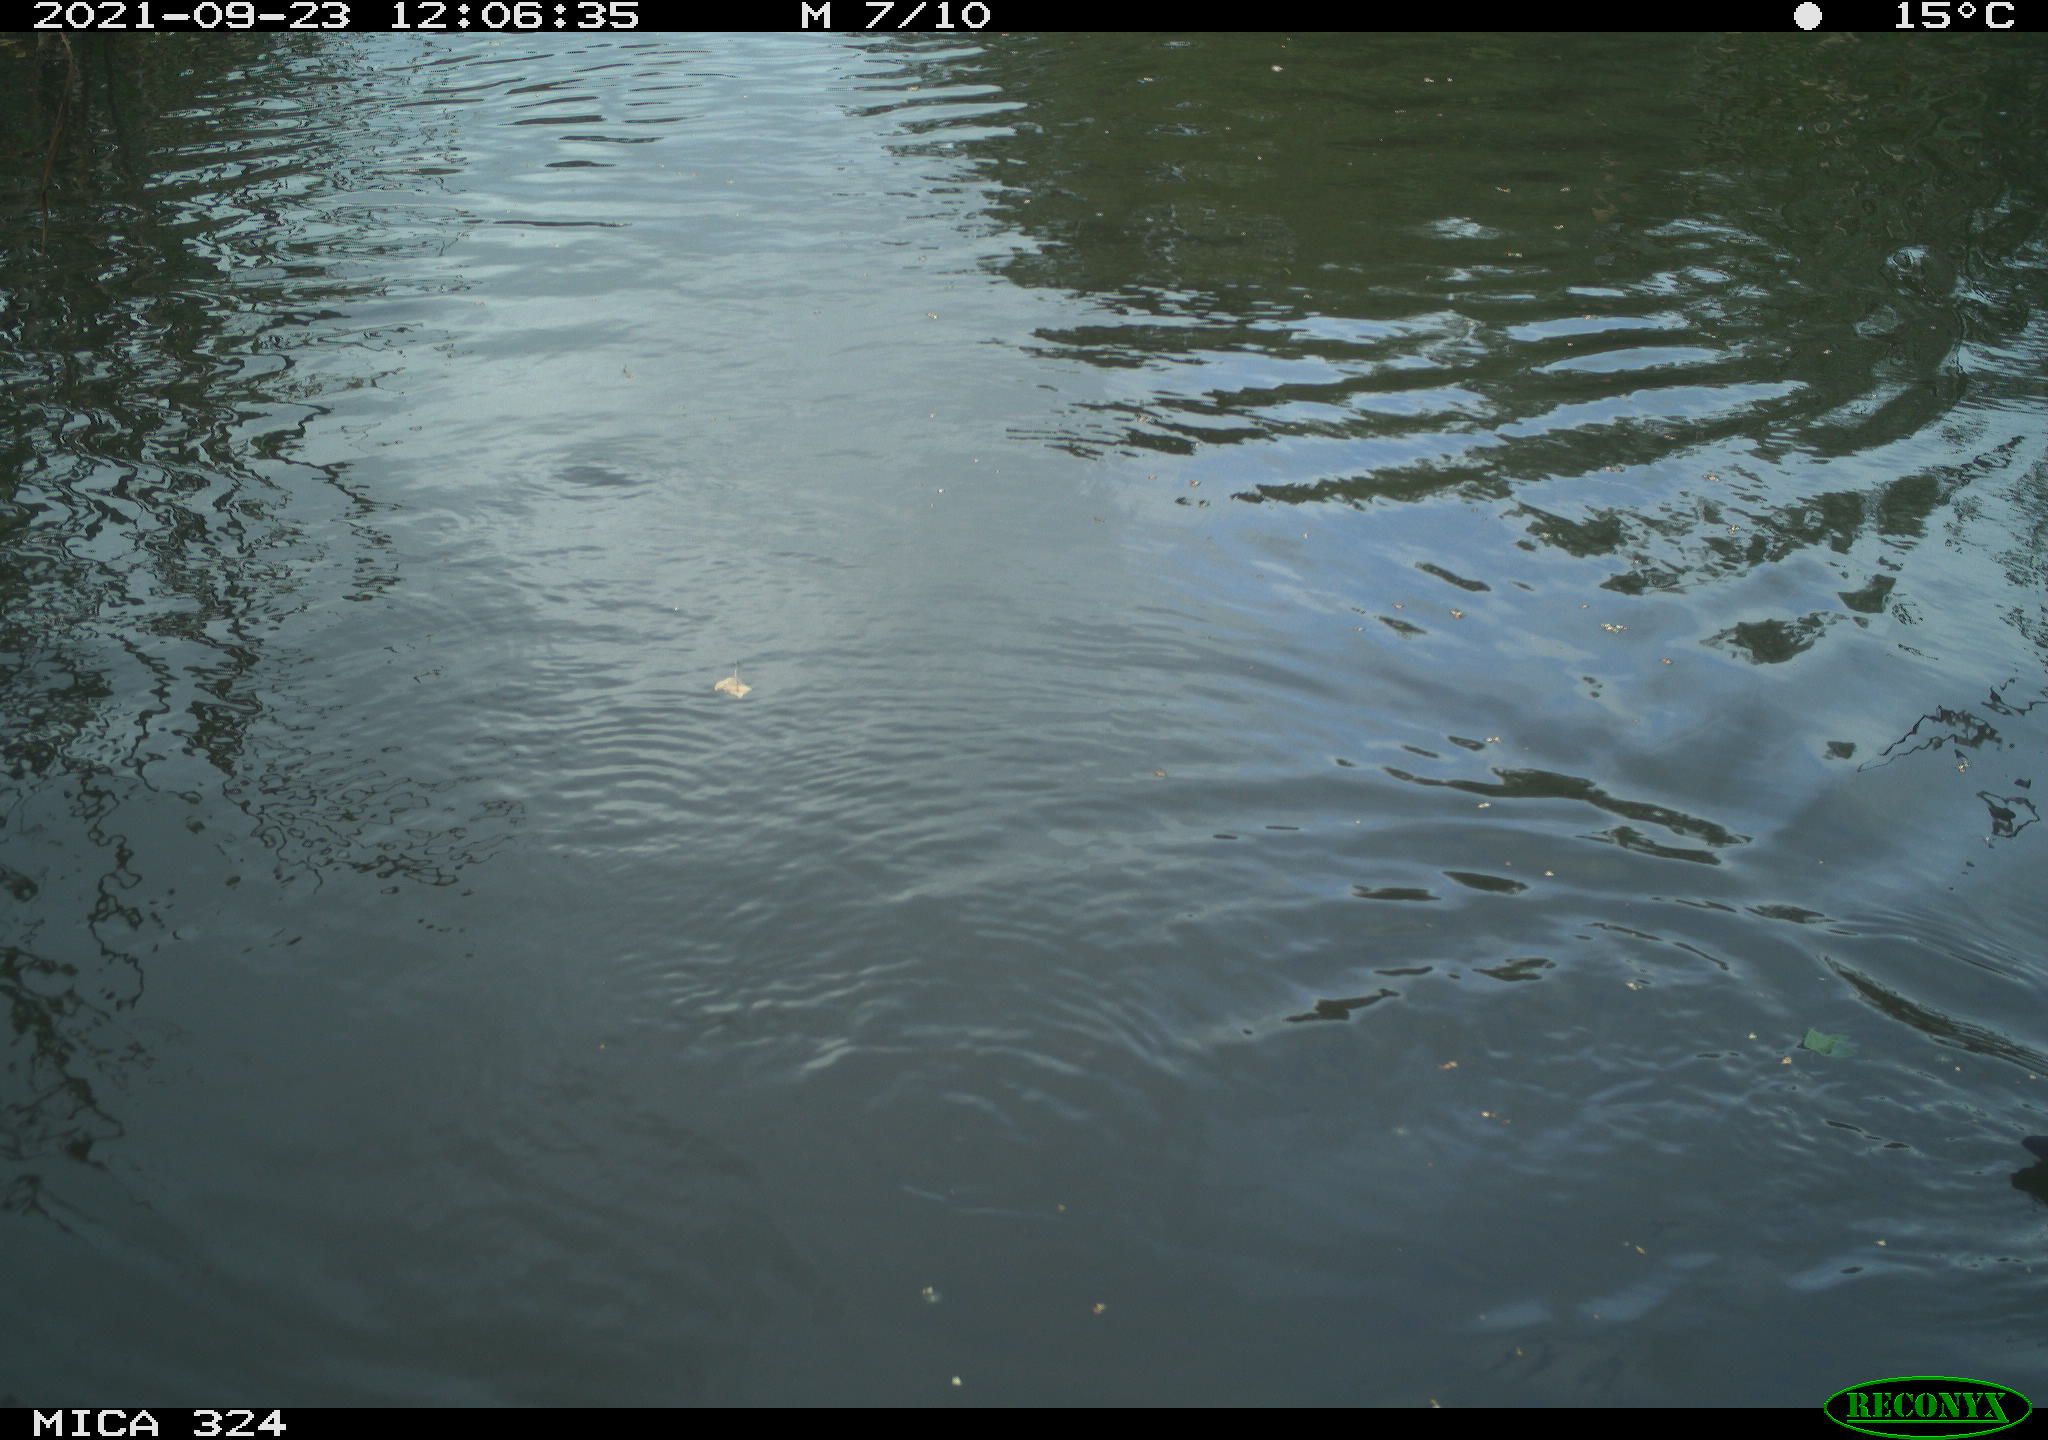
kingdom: Animalia
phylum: Chordata
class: Aves
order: Gruiformes
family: Rallidae
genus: Gallinula
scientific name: Gallinula chloropus
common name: Common moorhen
